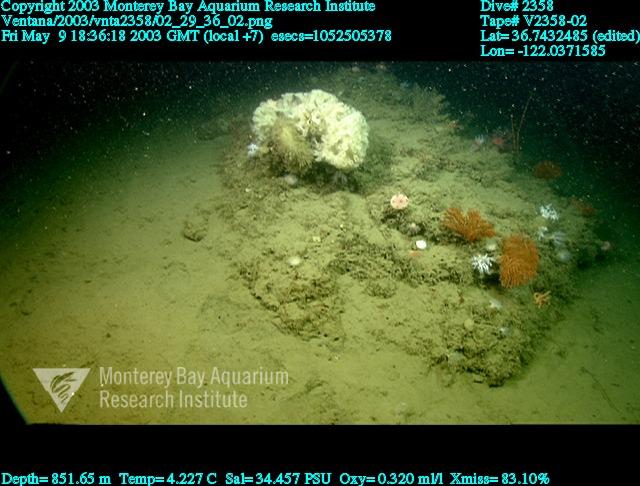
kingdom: Animalia
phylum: Porifera
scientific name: Porifera
